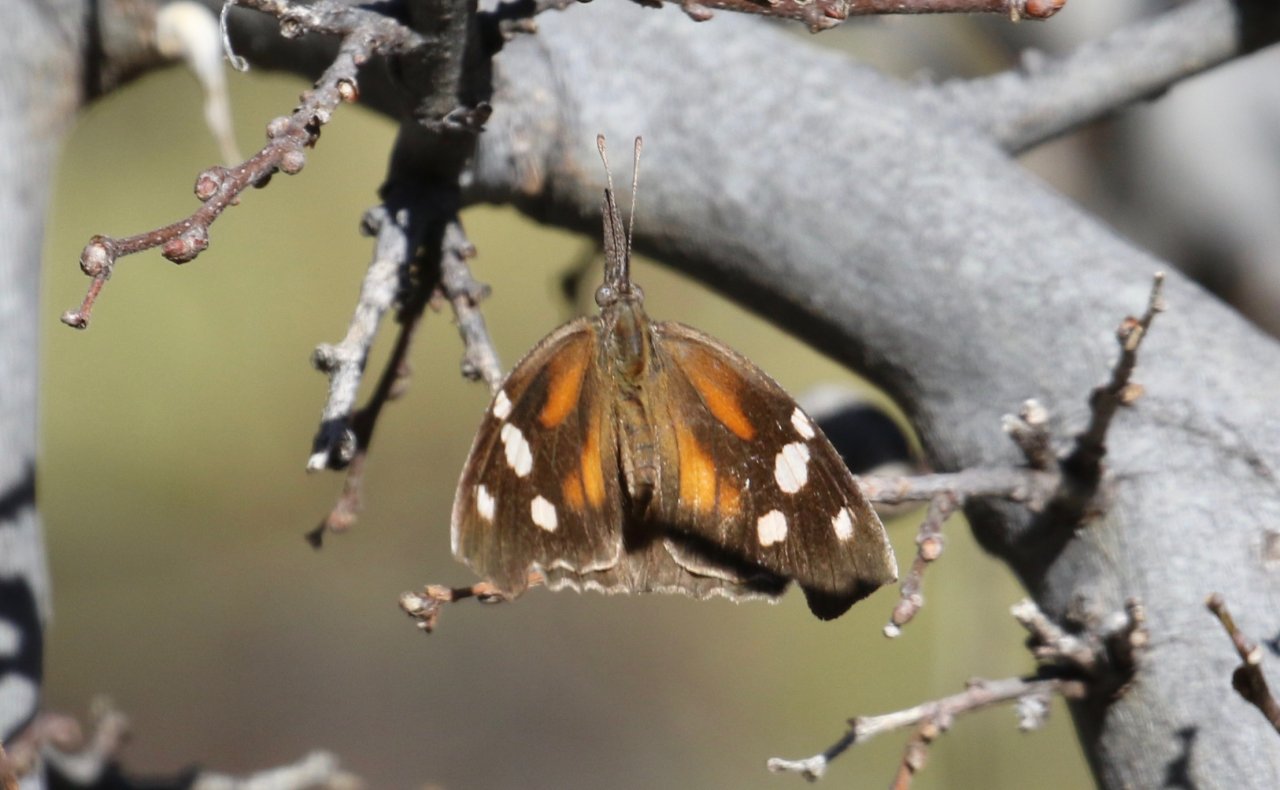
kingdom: Animalia
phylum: Arthropoda
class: Insecta
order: Lepidoptera
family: Nymphalidae
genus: Libytheana
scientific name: Libytheana carinenta
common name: American Snout
